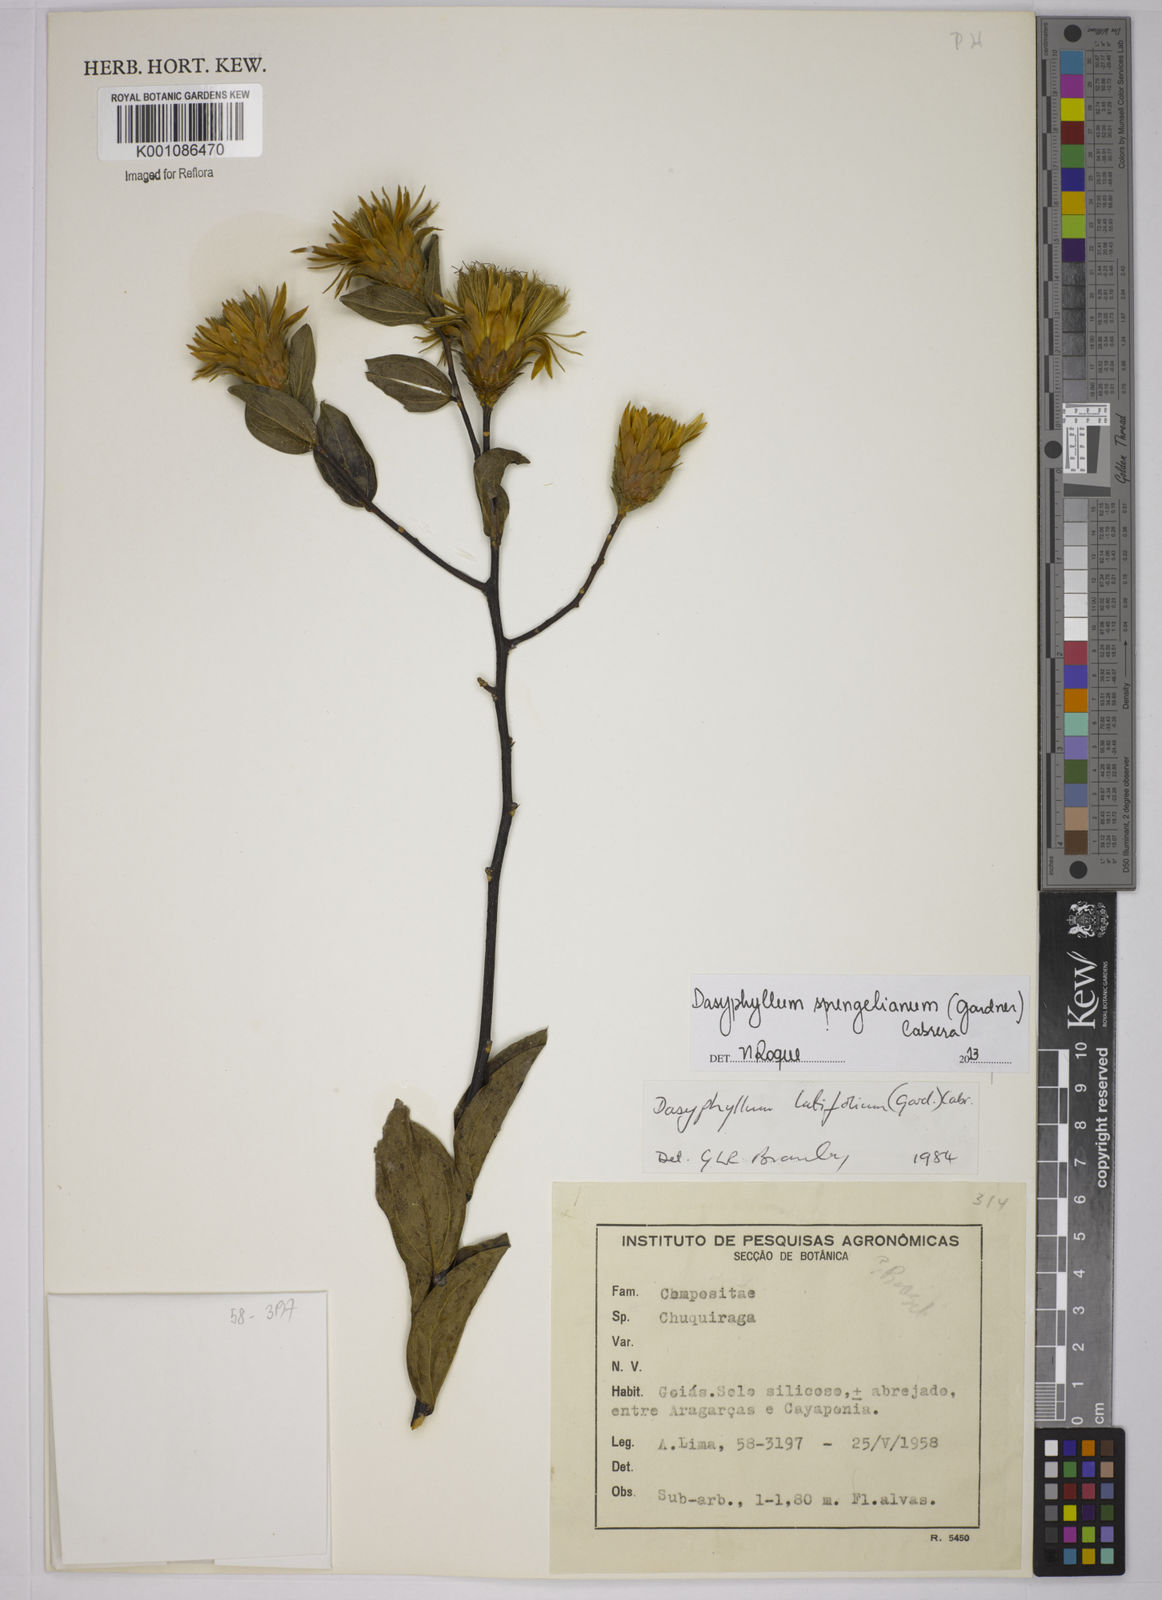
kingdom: Plantae
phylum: Tracheophyta
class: Magnoliopsida
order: Asterales
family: Asteraceae
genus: Dasyphyllum
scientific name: Dasyphyllum sprengelianum
